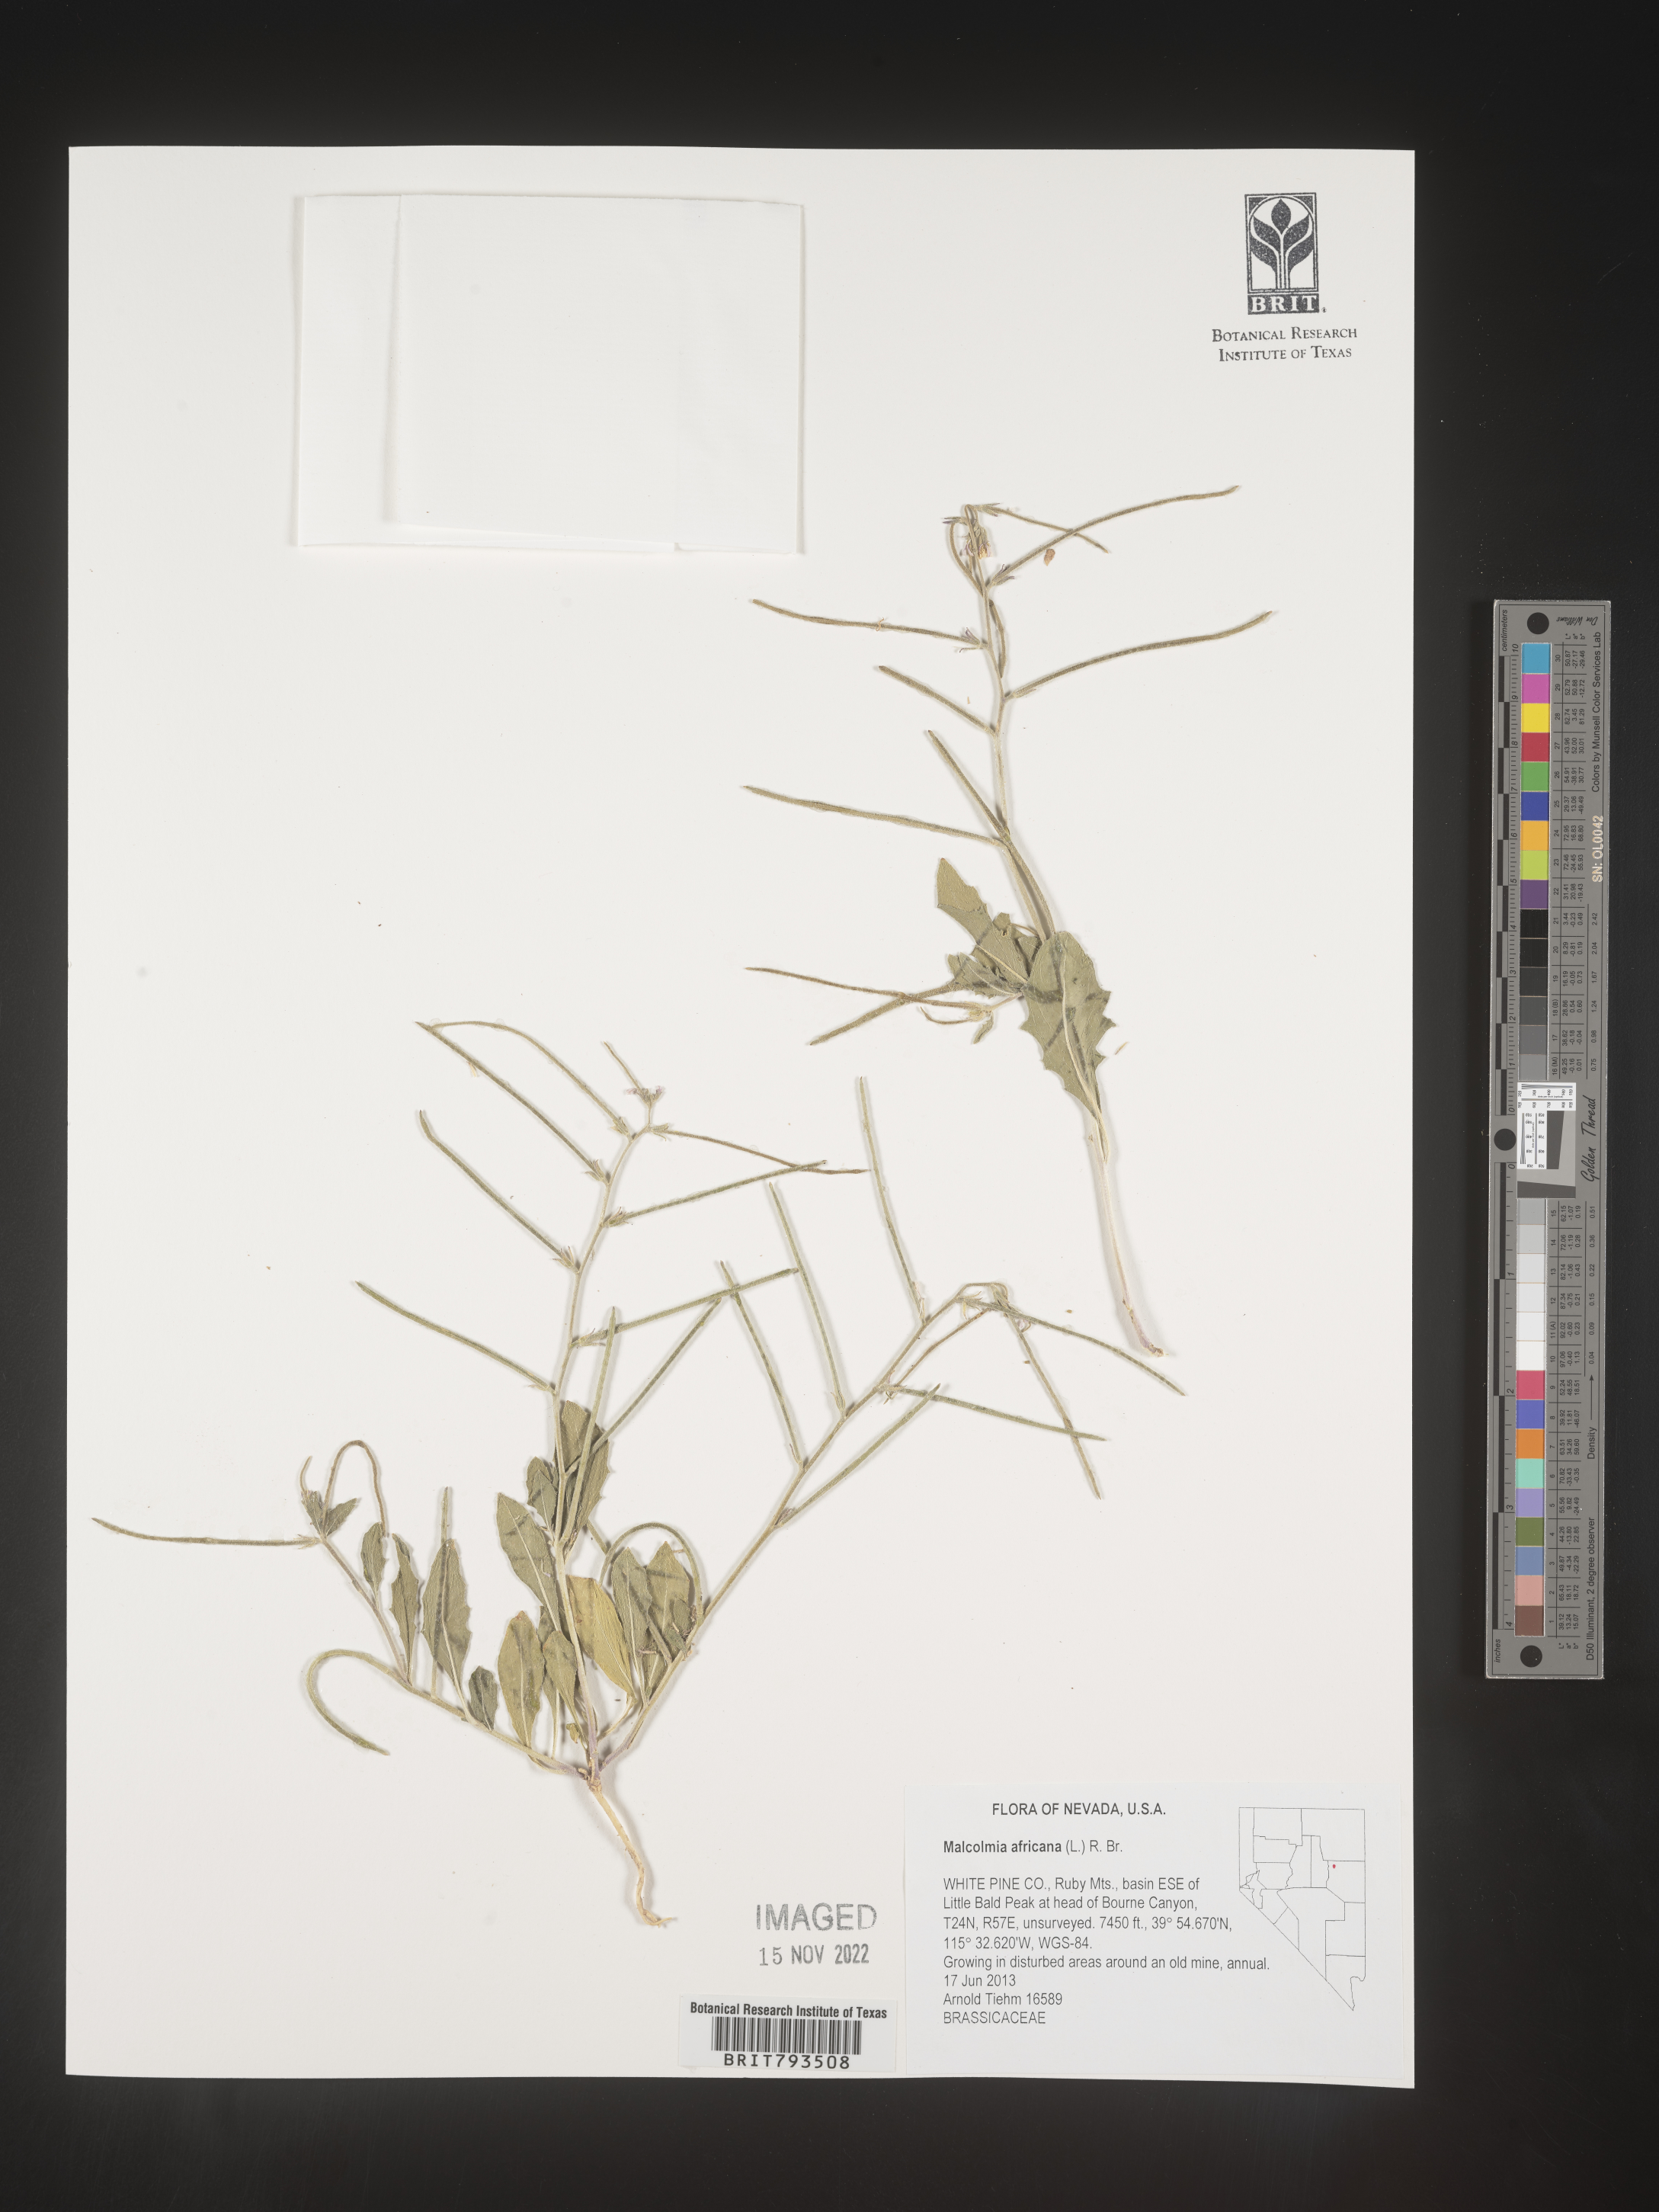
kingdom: Plantae
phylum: Tracheophyta
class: Magnoliopsida
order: Brassicales
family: Brassicaceae
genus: Strigosella
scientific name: Strigosella africana
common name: African mustard
